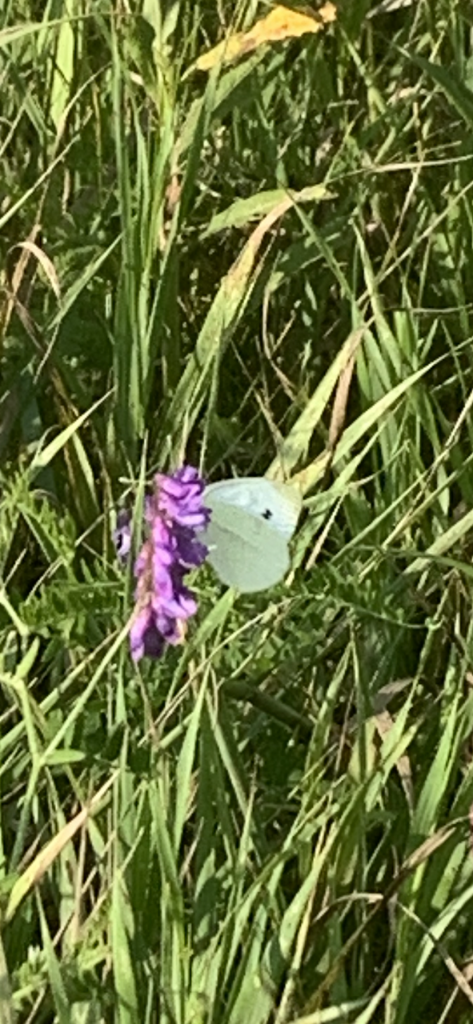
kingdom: Animalia
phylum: Arthropoda
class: Insecta
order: Lepidoptera
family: Pieridae
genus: Pieris
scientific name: Pieris rapae
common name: Cabbage White
